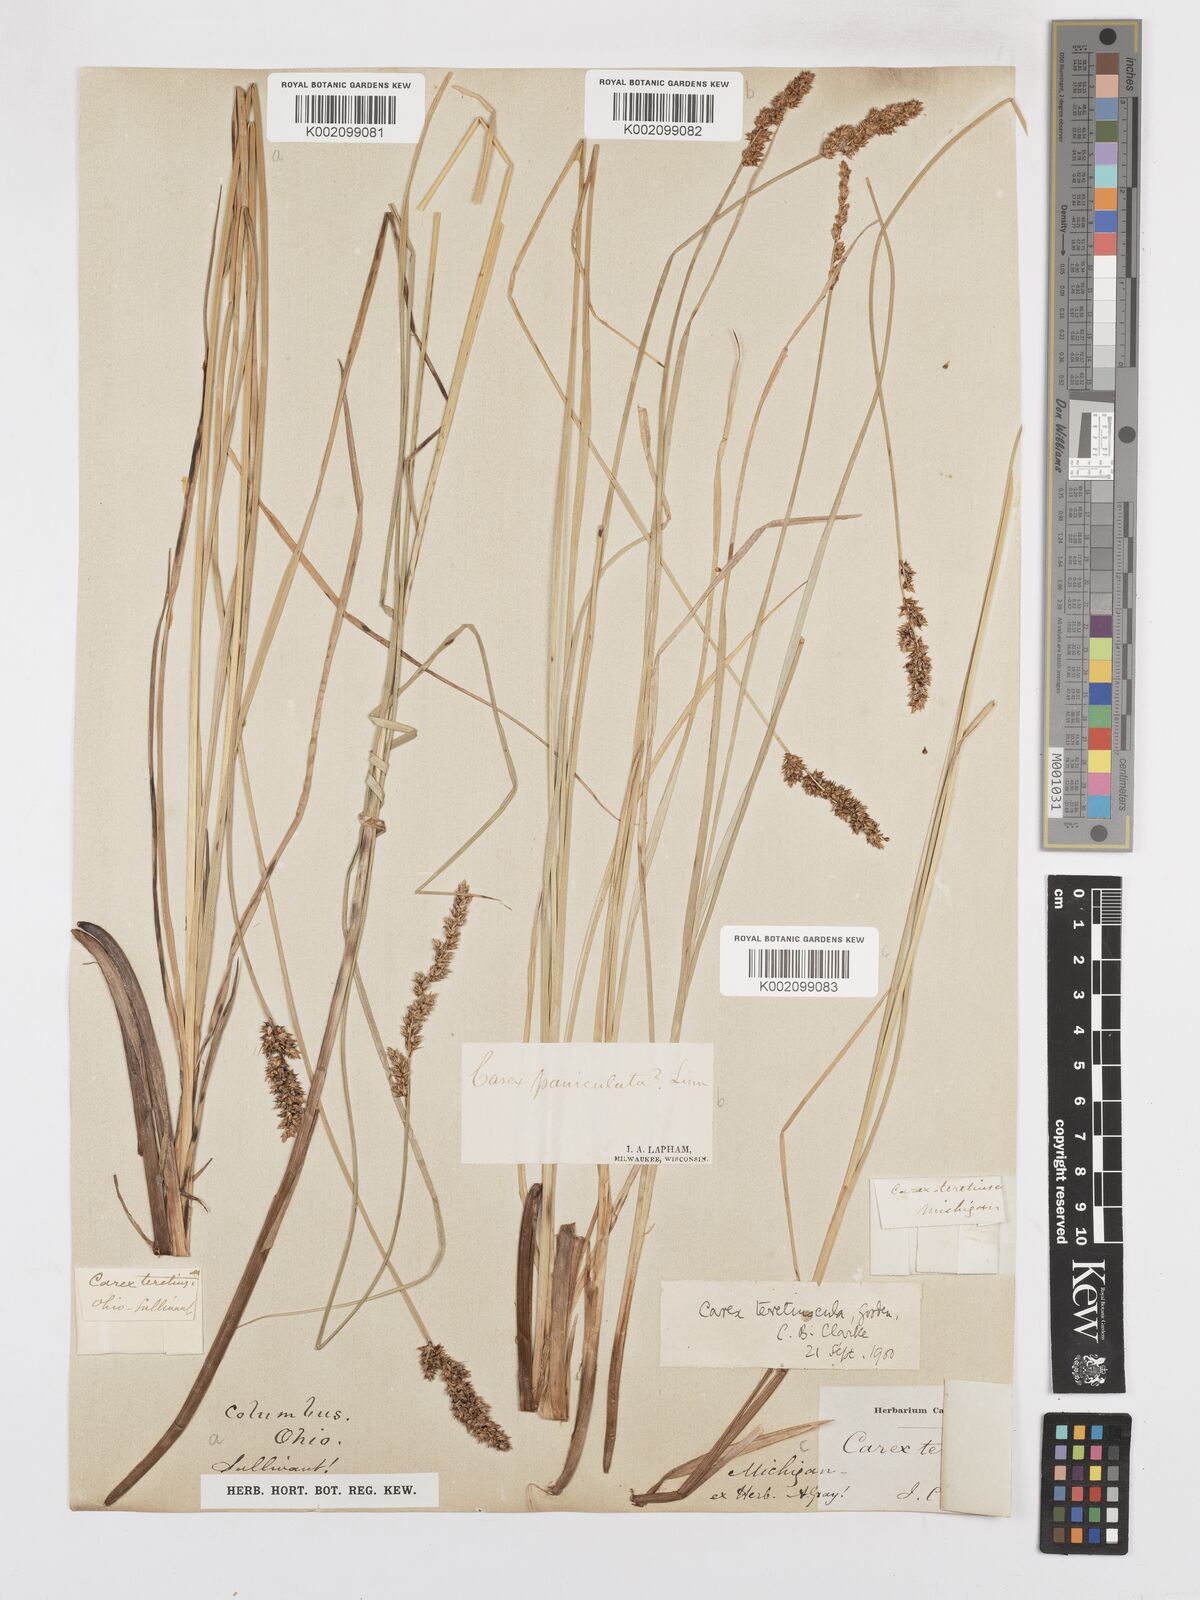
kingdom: Plantae
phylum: Tracheophyta
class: Liliopsida
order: Poales
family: Cyperaceae
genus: Carex
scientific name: Carex prairea
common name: Prairie sedge
